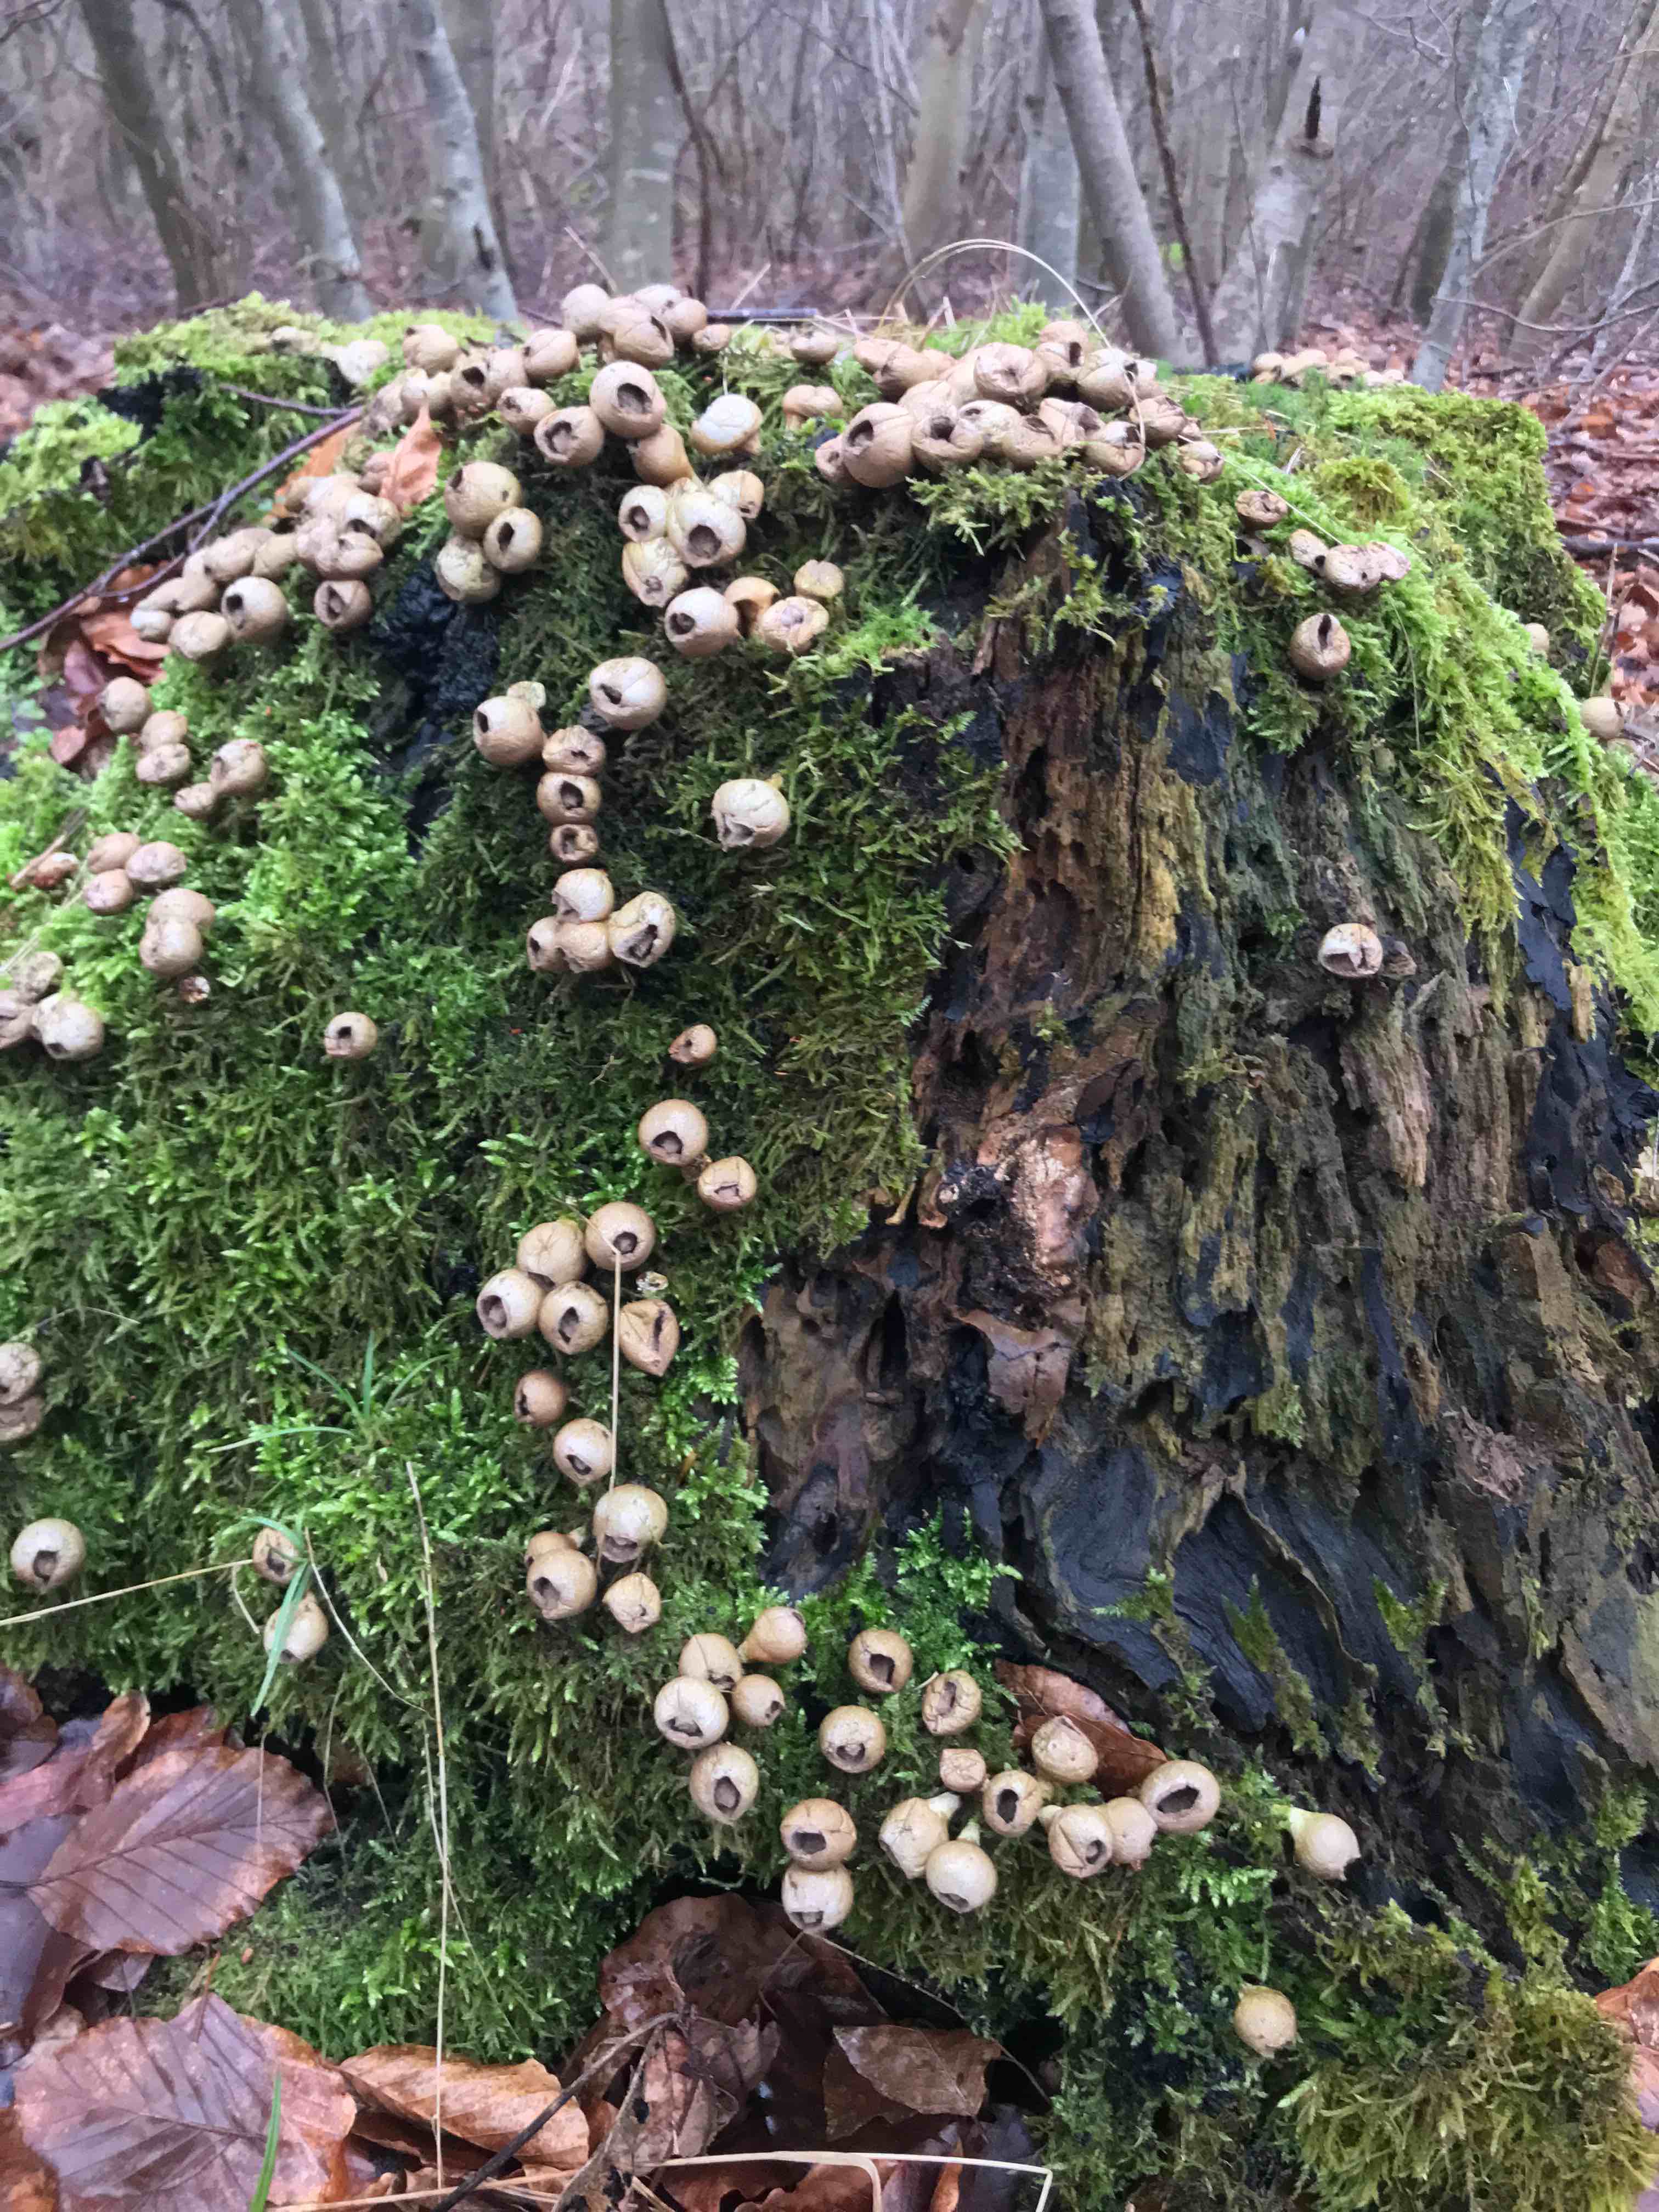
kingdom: Fungi
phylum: Basidiomycota
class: Agaricomycetes
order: Agaricales
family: Lycoperdaceae
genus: Apioperdon
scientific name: Apioperdon pyriforme
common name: pære-støvbold
